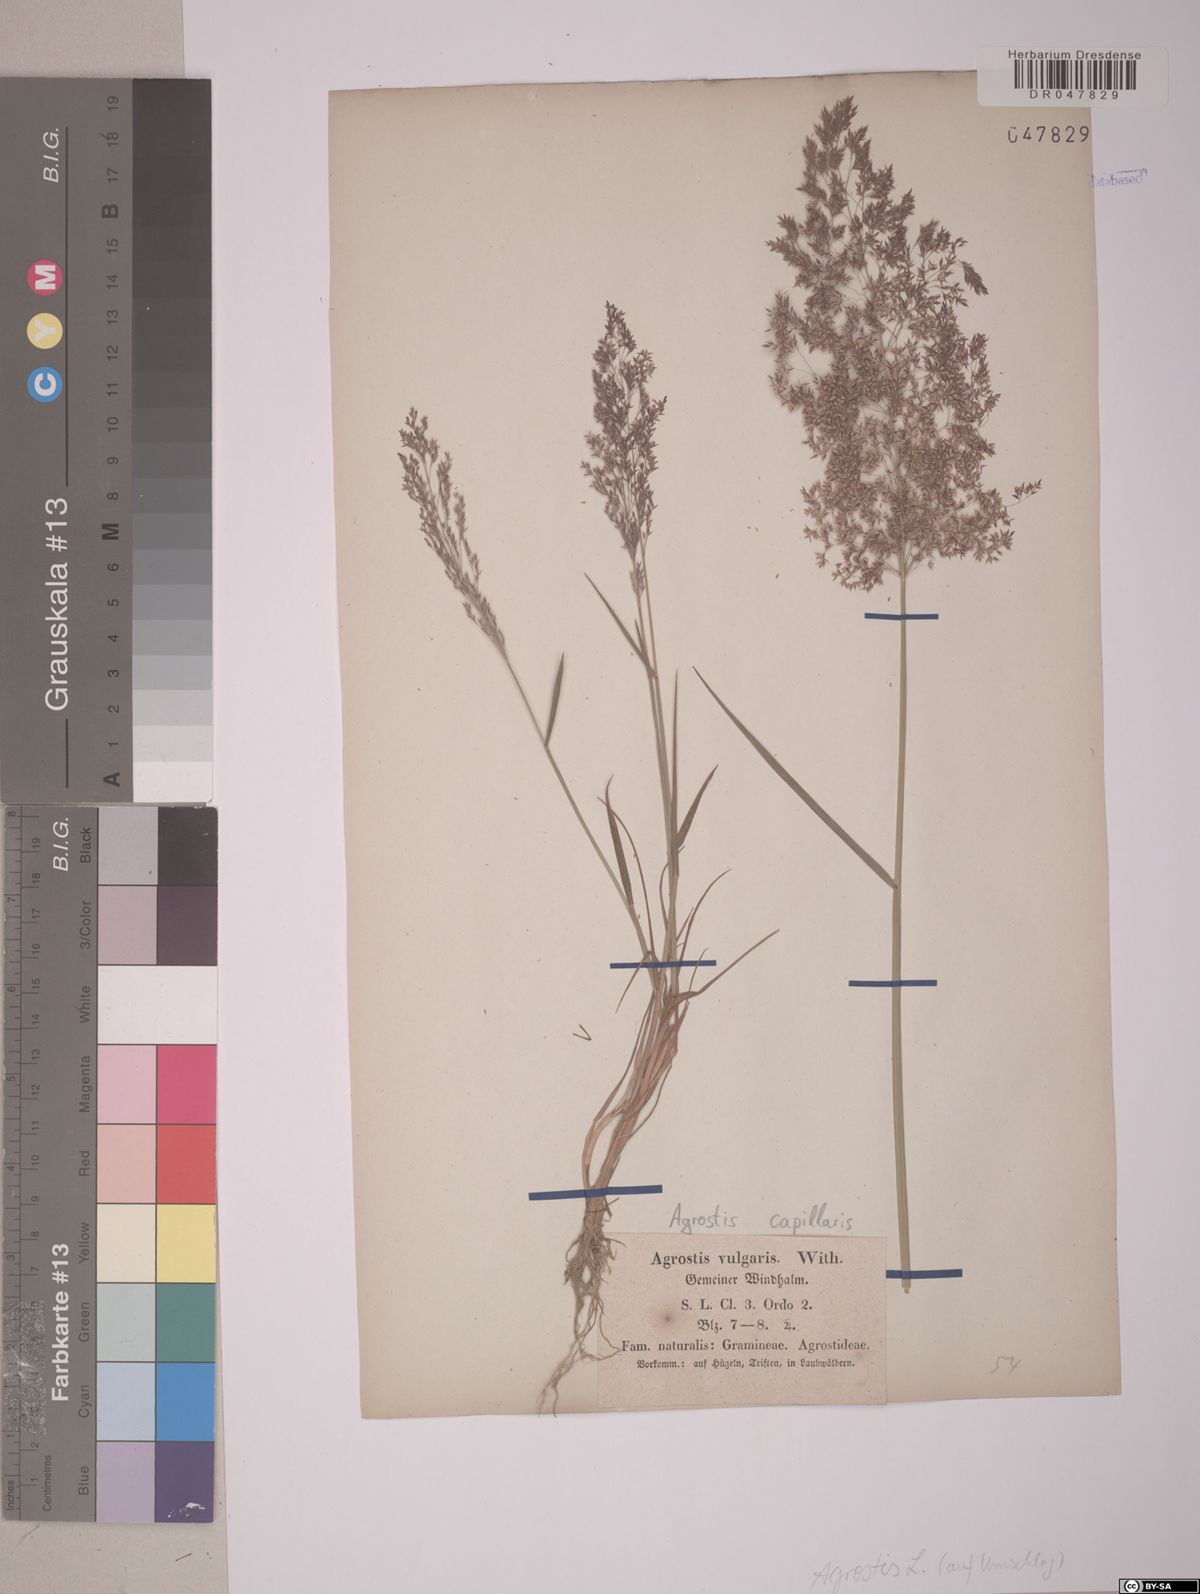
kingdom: Plantae
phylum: Tracheophyta
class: Liliopsida
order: Poales
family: Poaceae
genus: Agrostis
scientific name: Agrostis capillaris
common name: Colonial bentgrass
